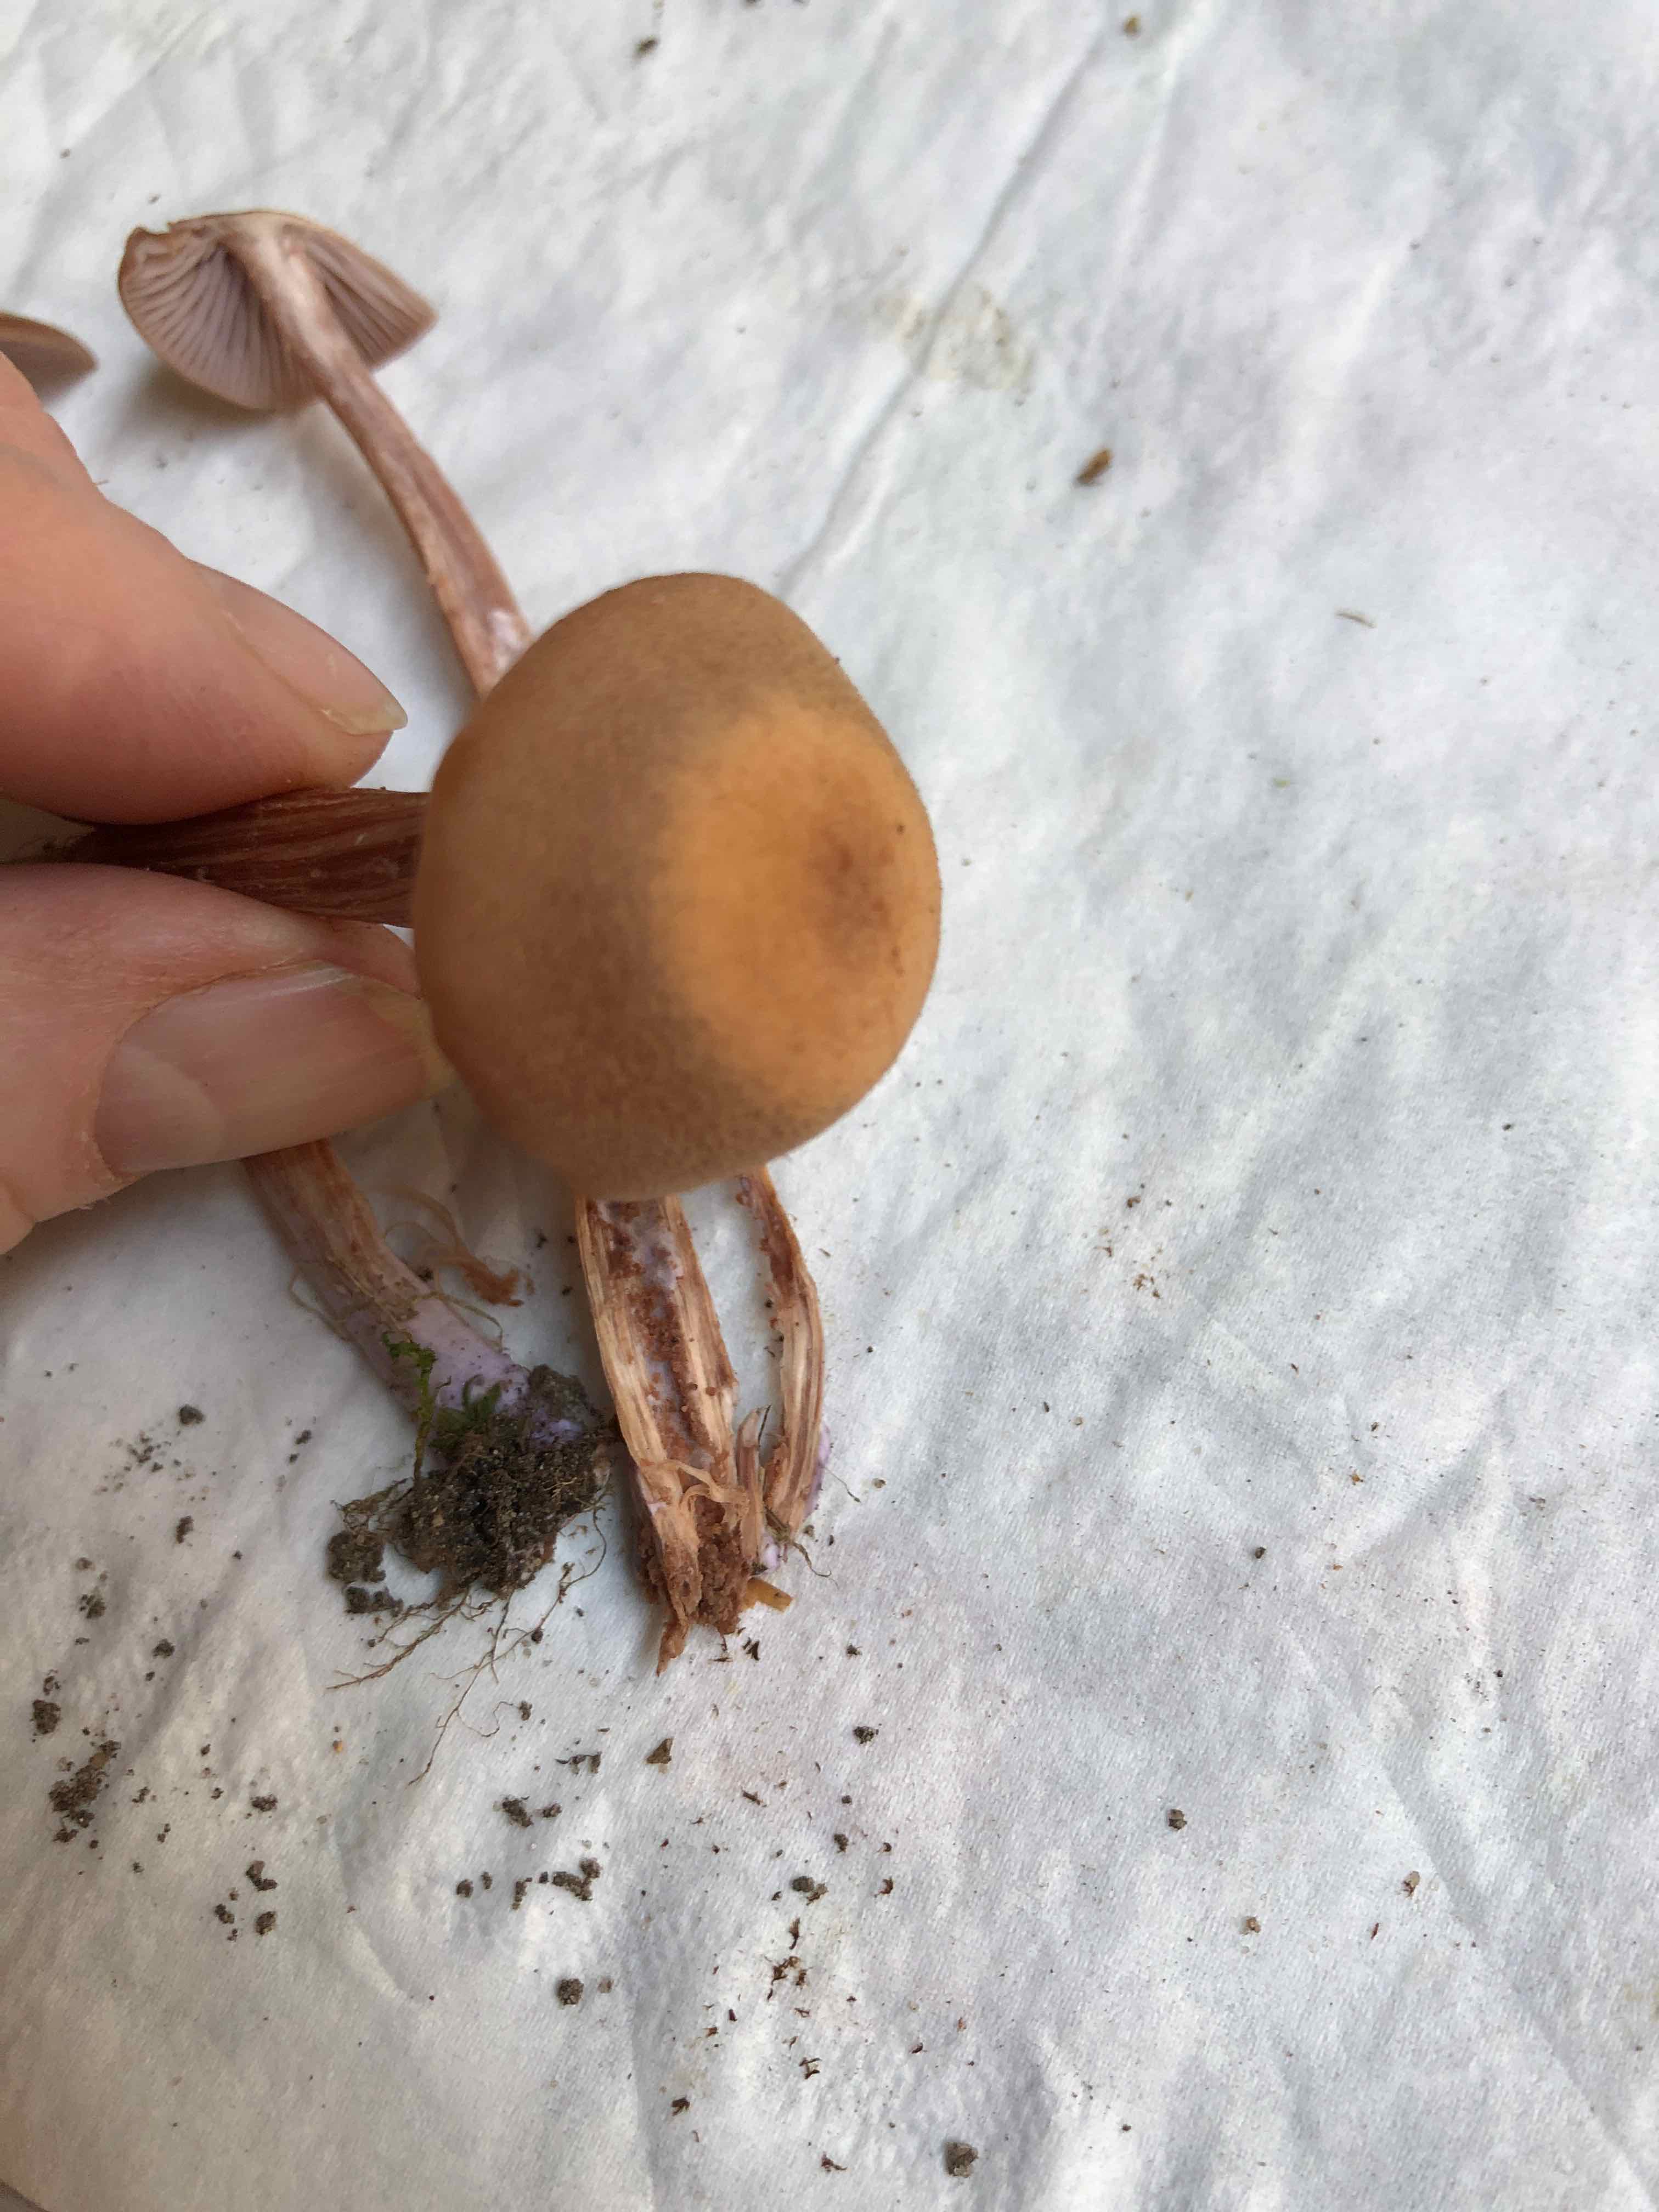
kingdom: Fungi
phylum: Basidiomycota
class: Agaricomycetes
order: Agaricales
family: Hydnangiaceae
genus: Laccaria
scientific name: Laccaria bicolor
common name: tvefarvet ametysthat
